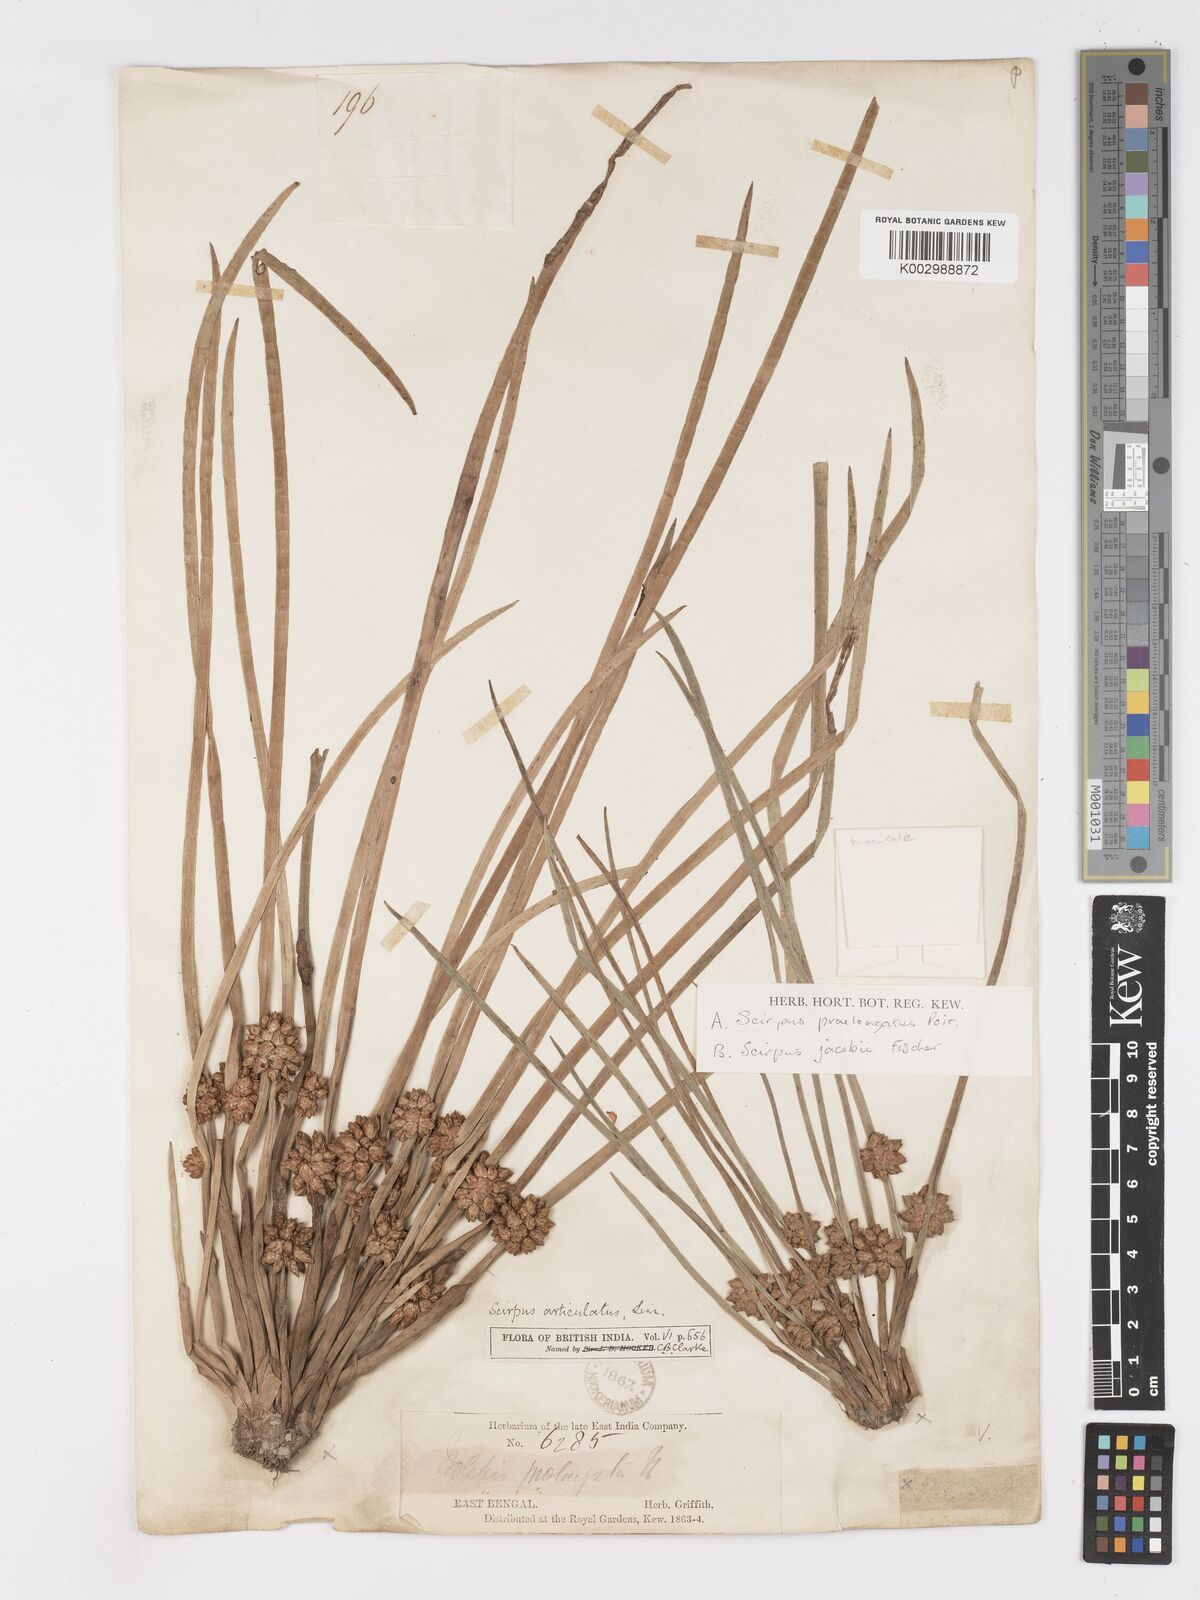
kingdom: Plantae
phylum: Tracheophyta
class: Liliopsida
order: Poales
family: Cyperaceae
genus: Schoenoplectiella
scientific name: Schoenoplectiella praelongata
